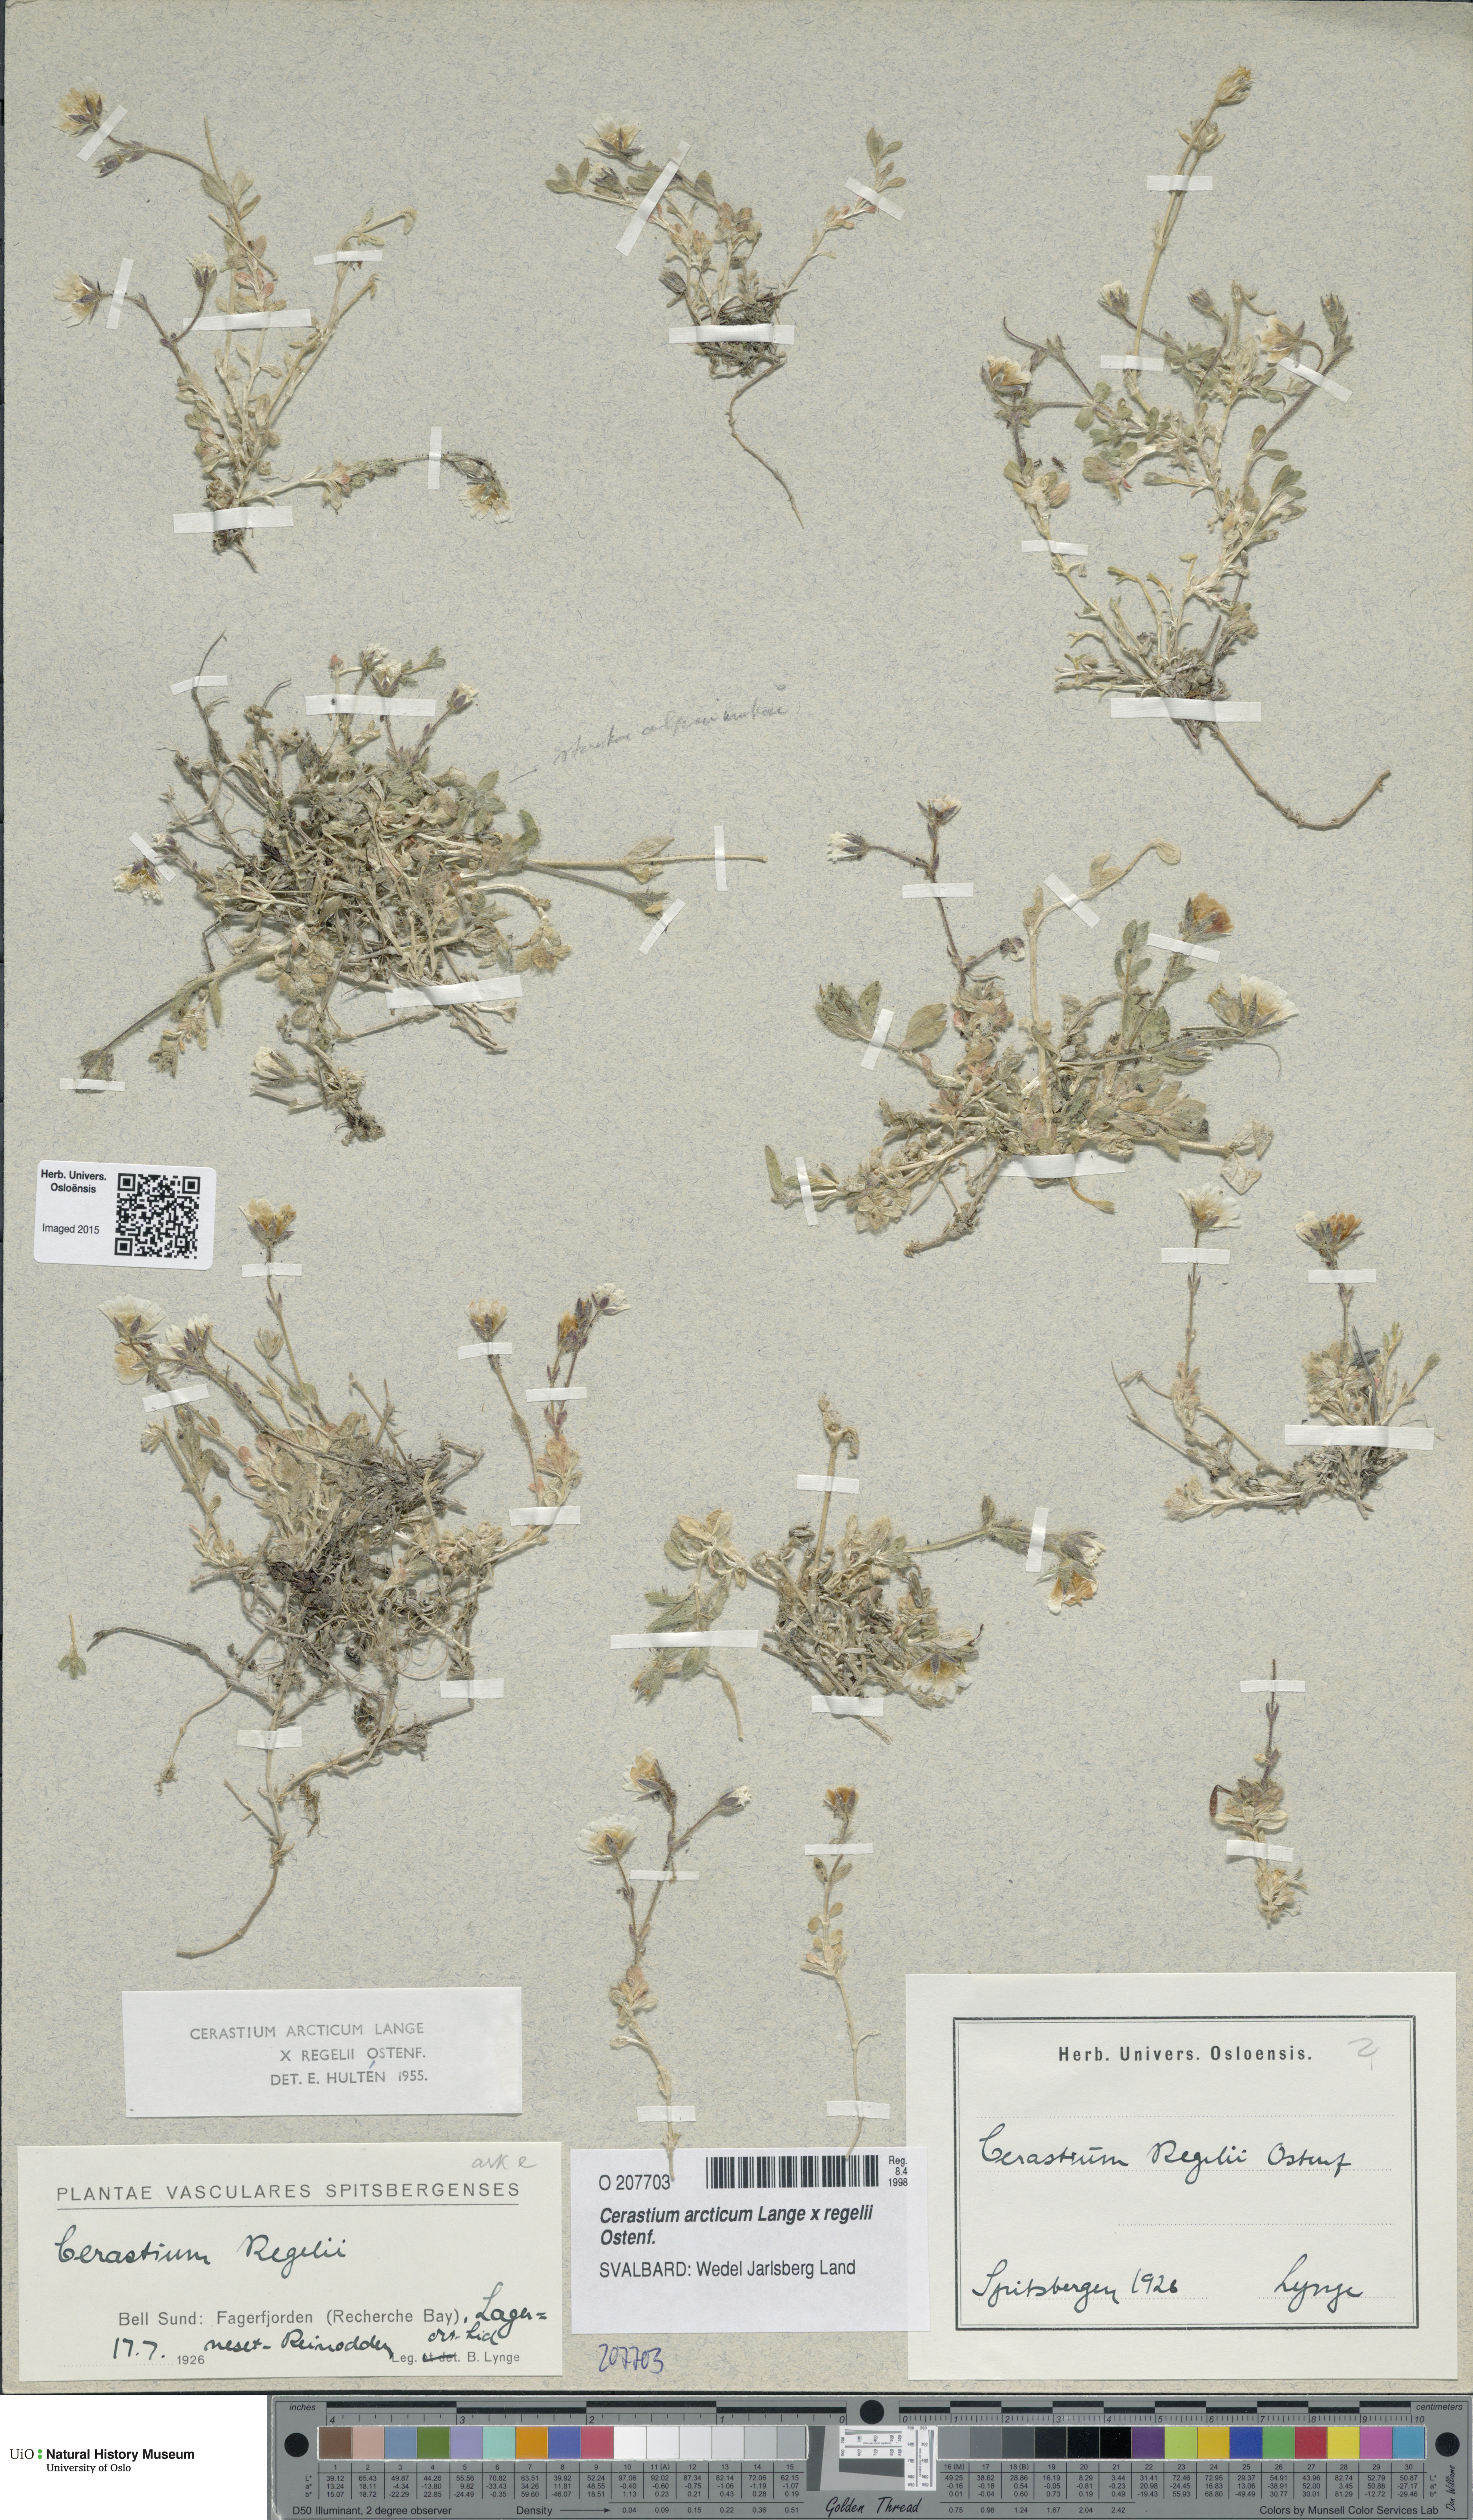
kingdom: Plantae
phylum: Tracheophyta
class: Magnoliopsida
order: Caryophyllales
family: Caryophyllaceae
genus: Cerastium
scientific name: Cerastium
